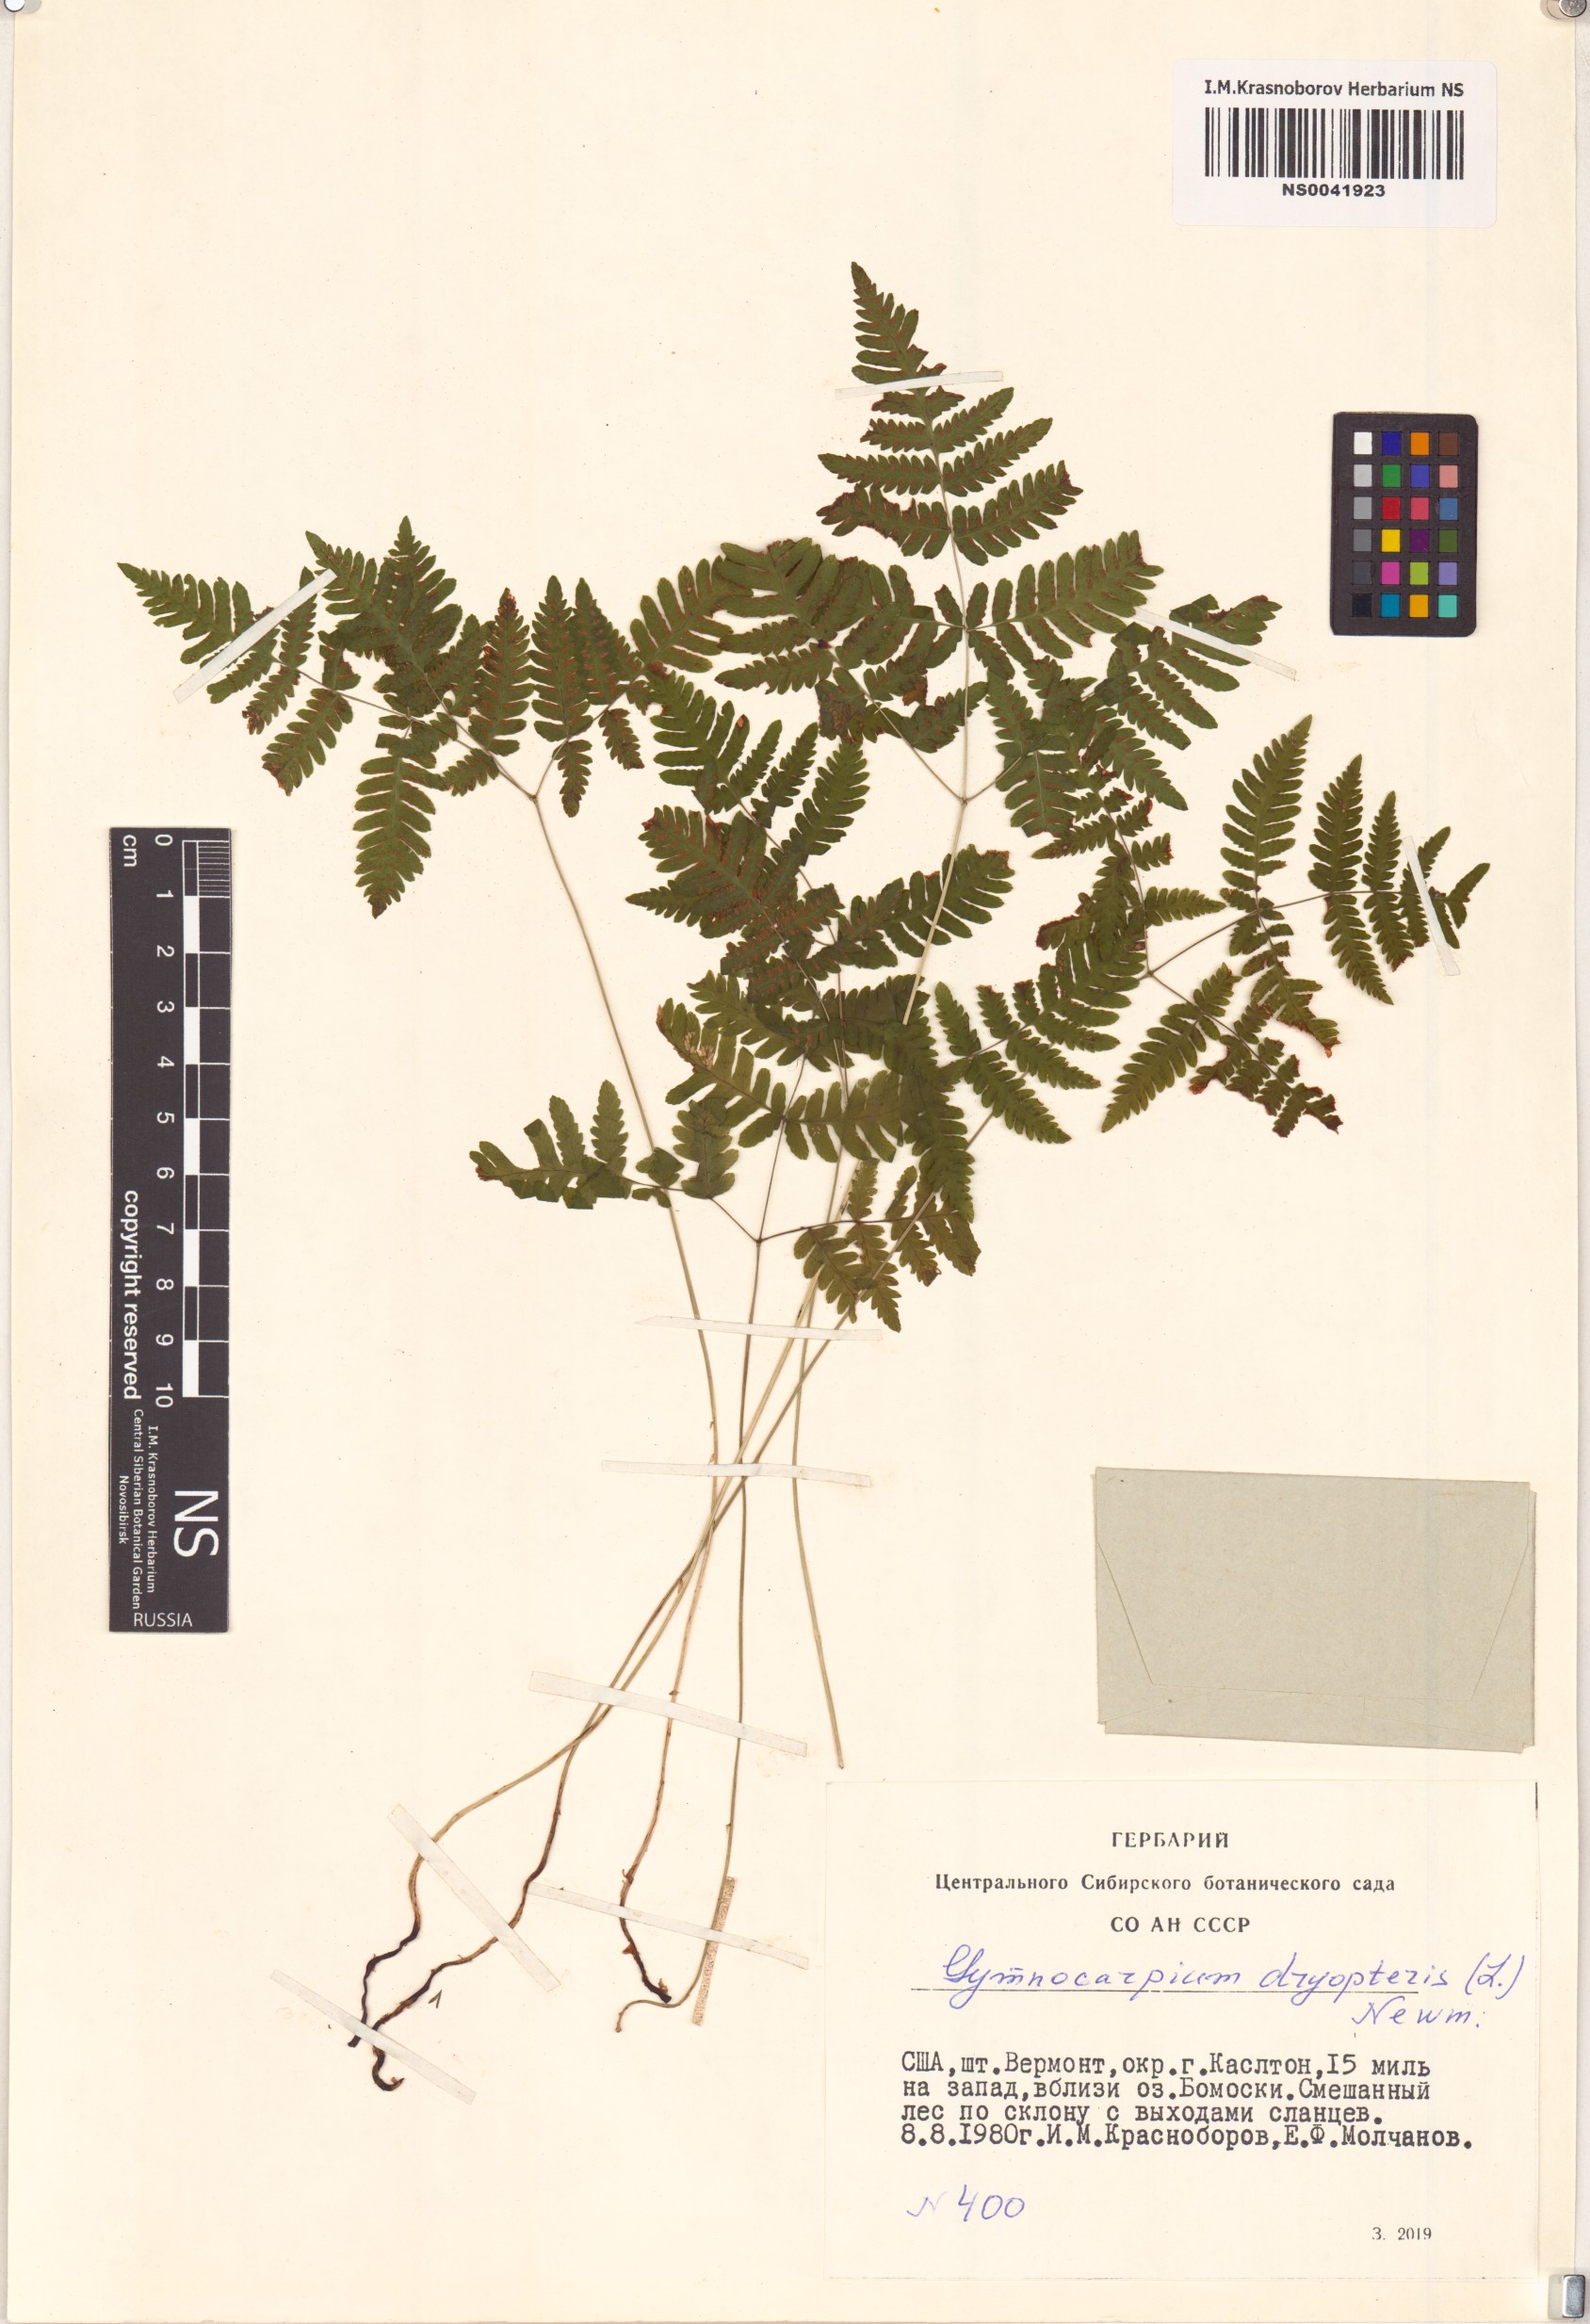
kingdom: Plantae
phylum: Tracheophyta
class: Polypodiopsida
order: Polypodiales
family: Cystopteridaceae
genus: Gymnocarpium
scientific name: Gymnocarpium dryopteris
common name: Oak fern
